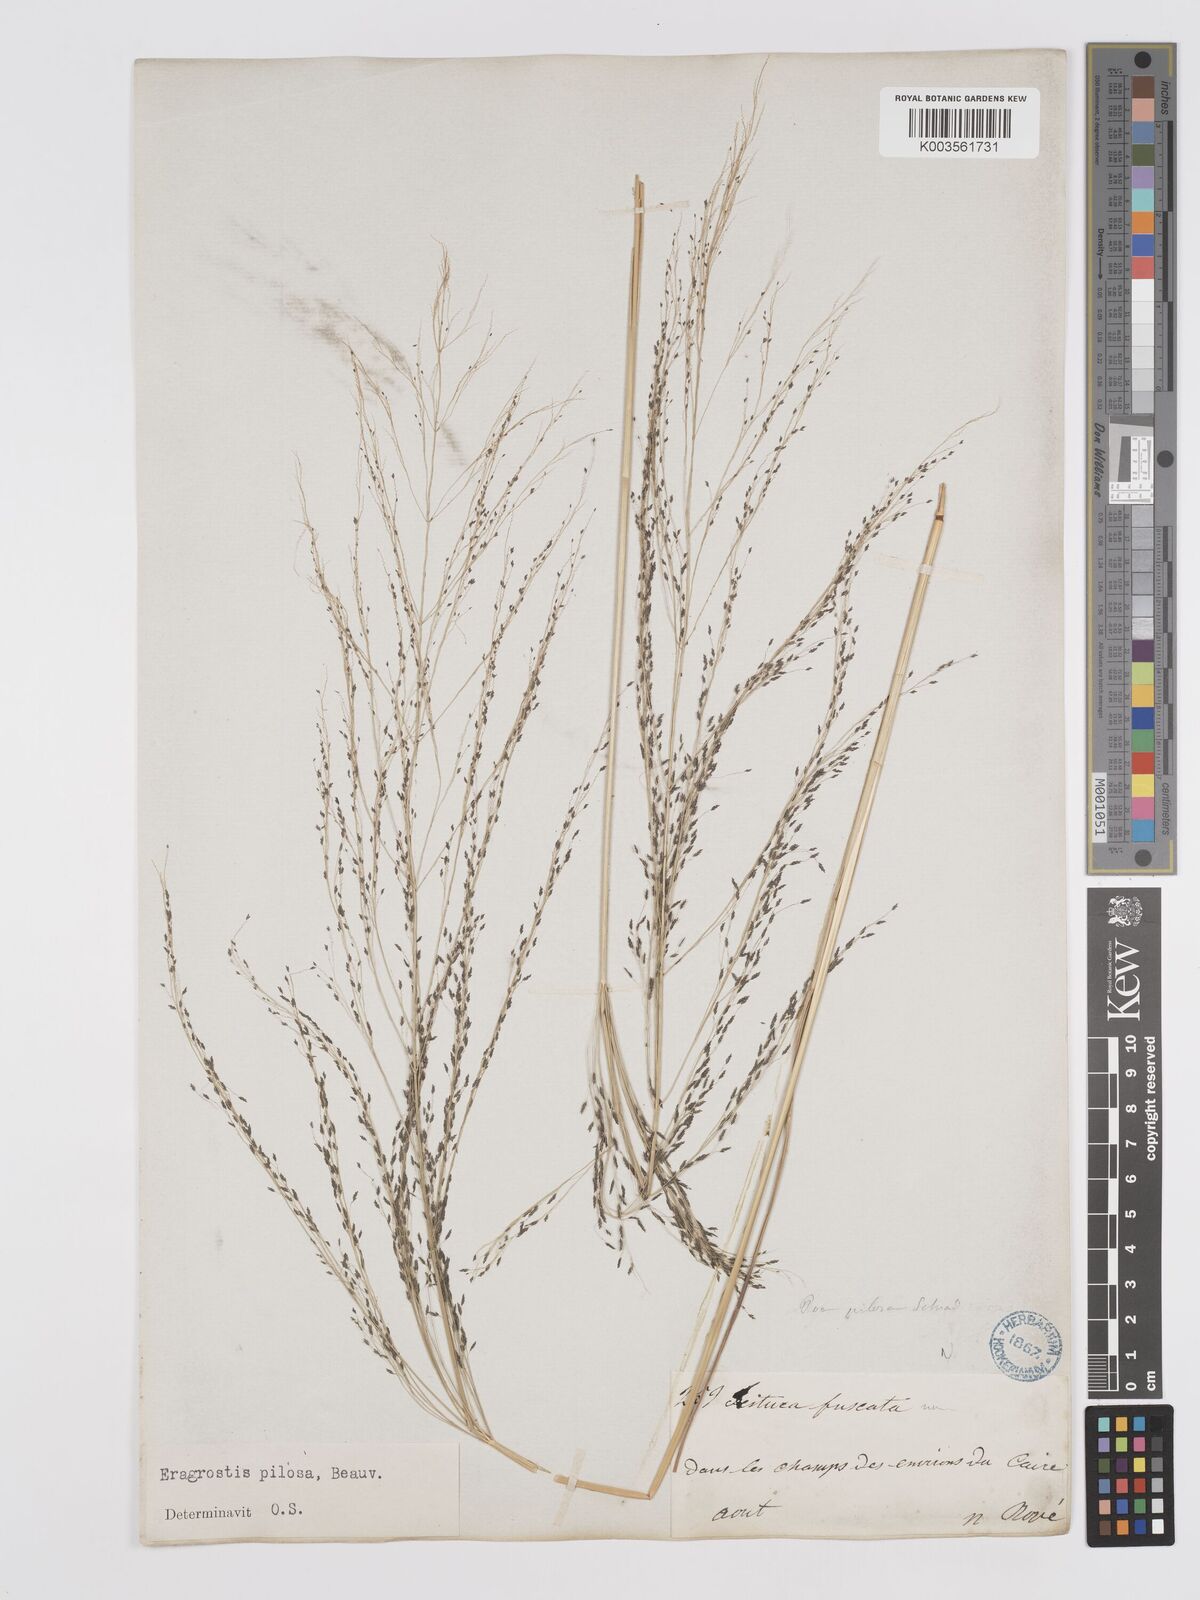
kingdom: Plantae
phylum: Tracheophyta
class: Liliopsida
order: Poales
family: Poaceae
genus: Eragrostis
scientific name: Eragrostis pilosa
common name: Indian lovegrass
